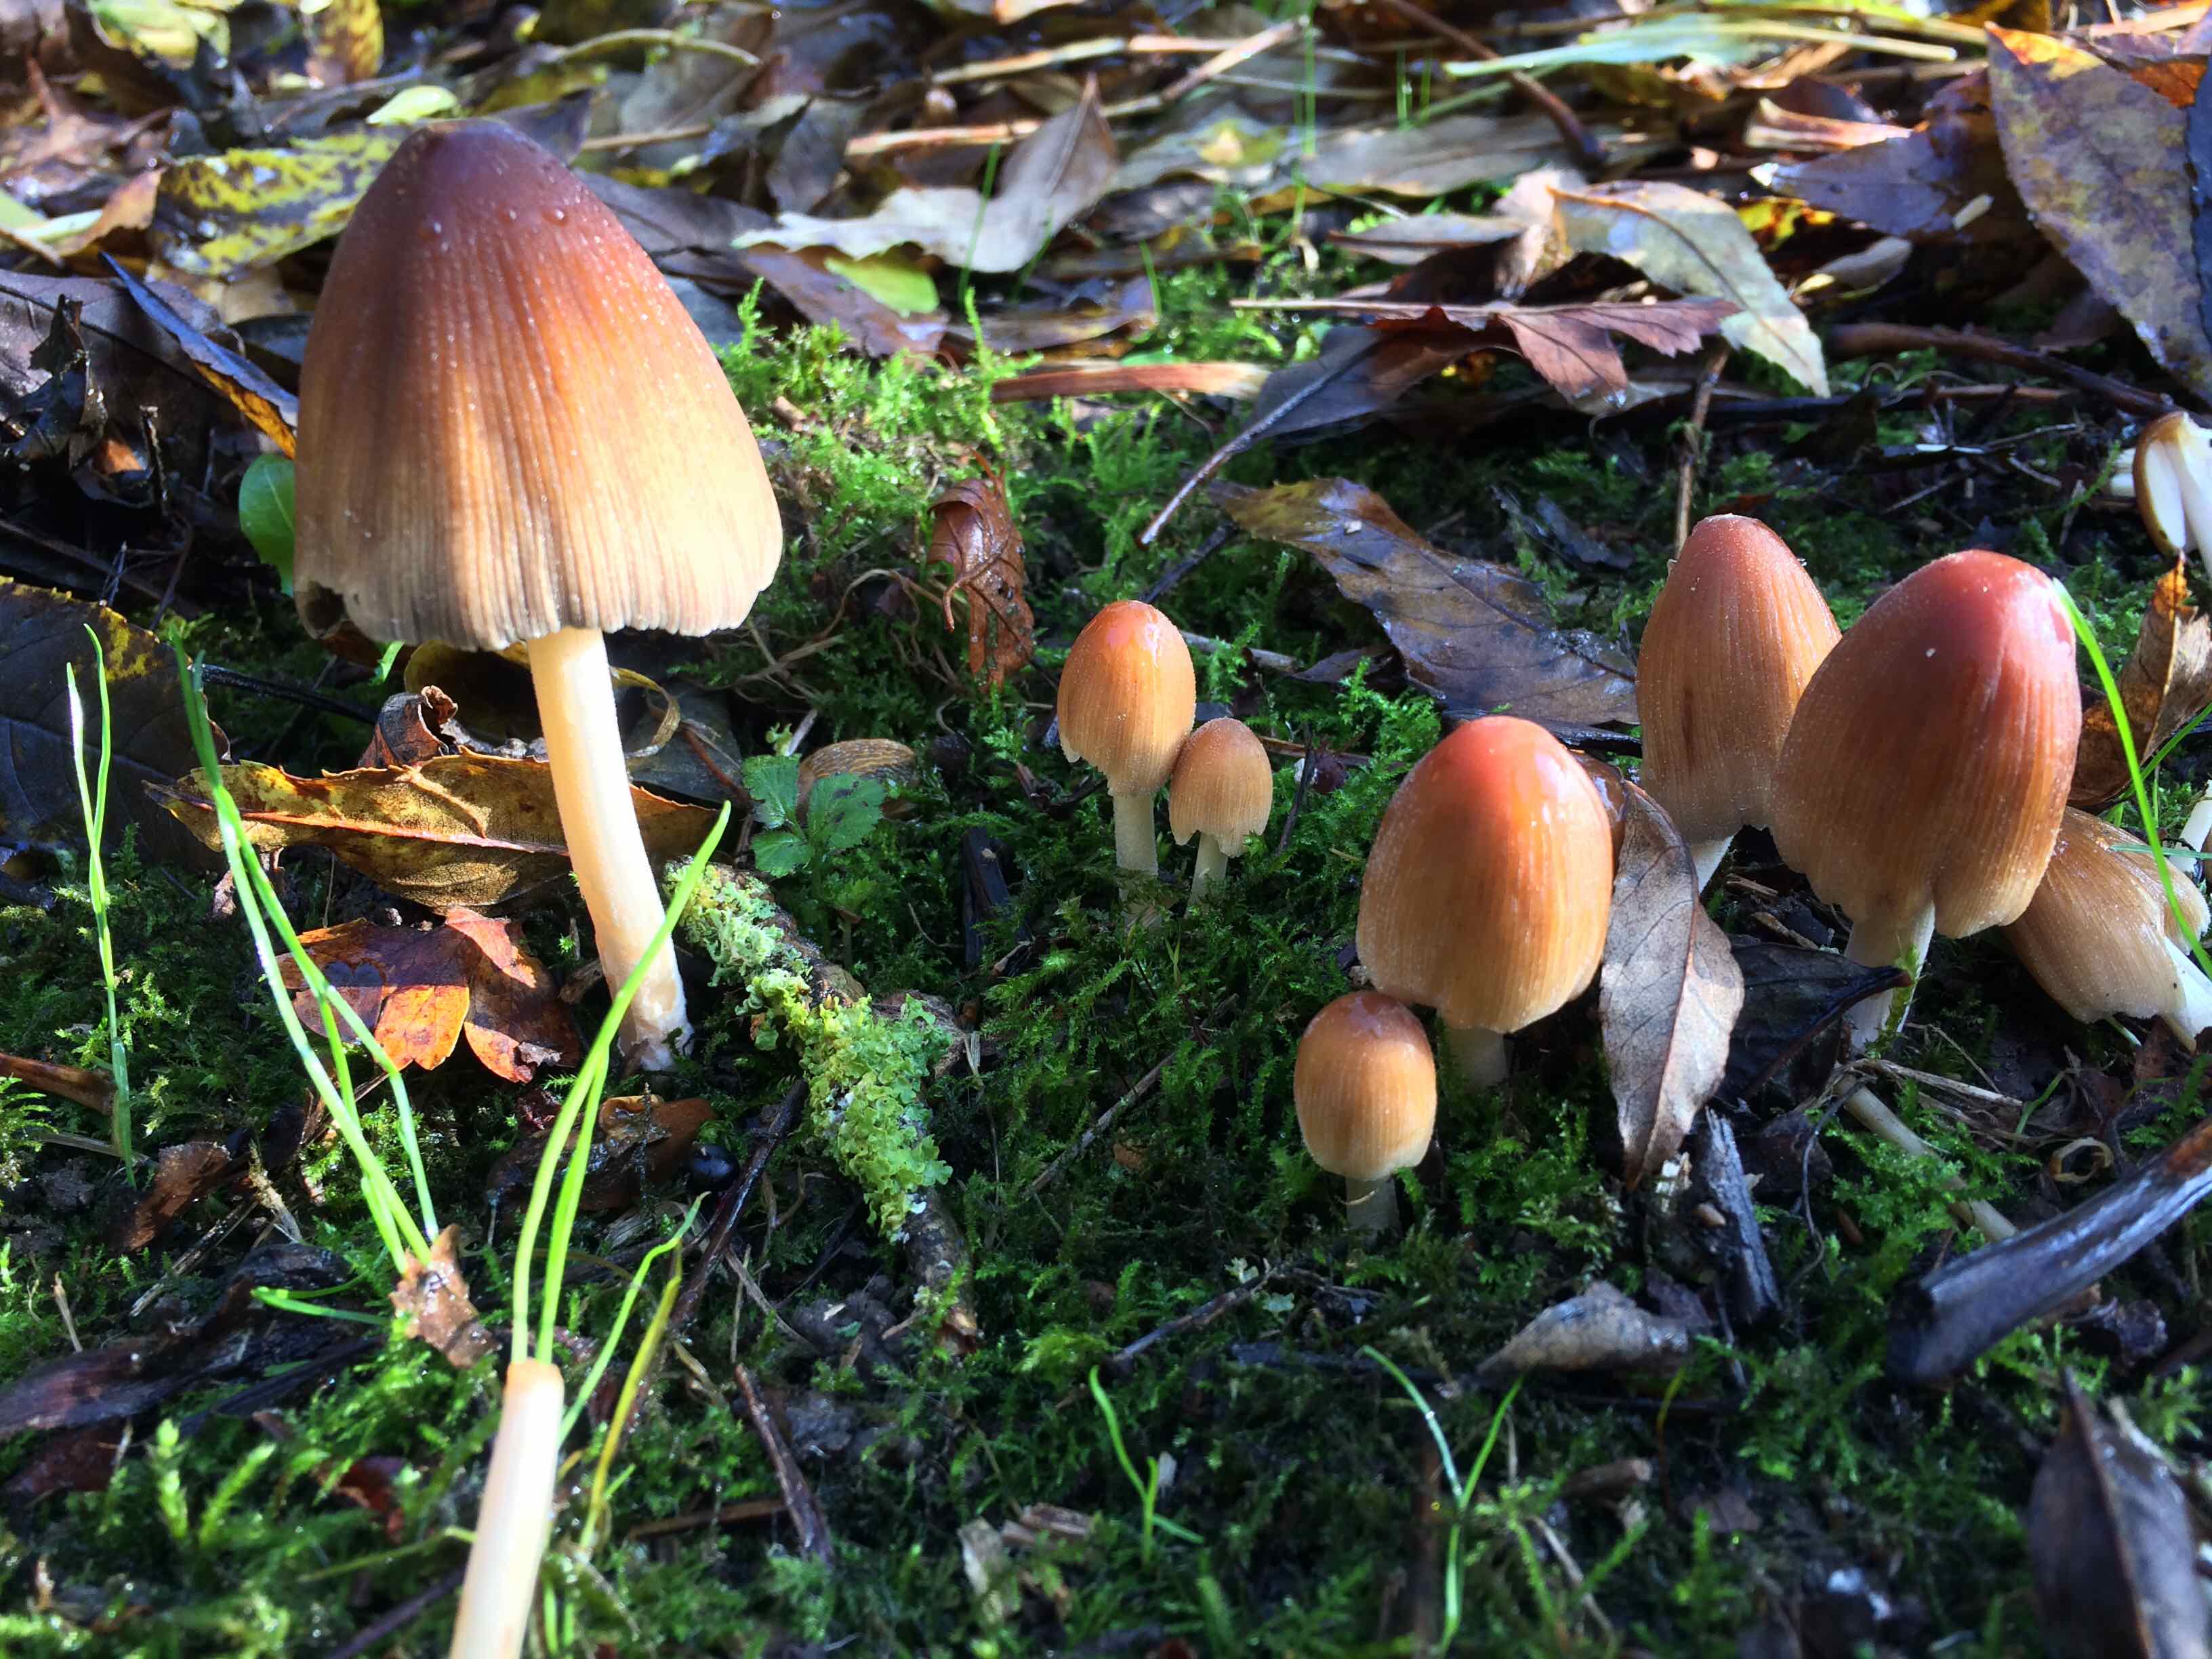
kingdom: Fungi
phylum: Basidiomycota
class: Agaricomycetes
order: Agaricales
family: Psathyrellaceae
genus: Coprinellus
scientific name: Coprinellus micaceus
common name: glimmer-blækhat
